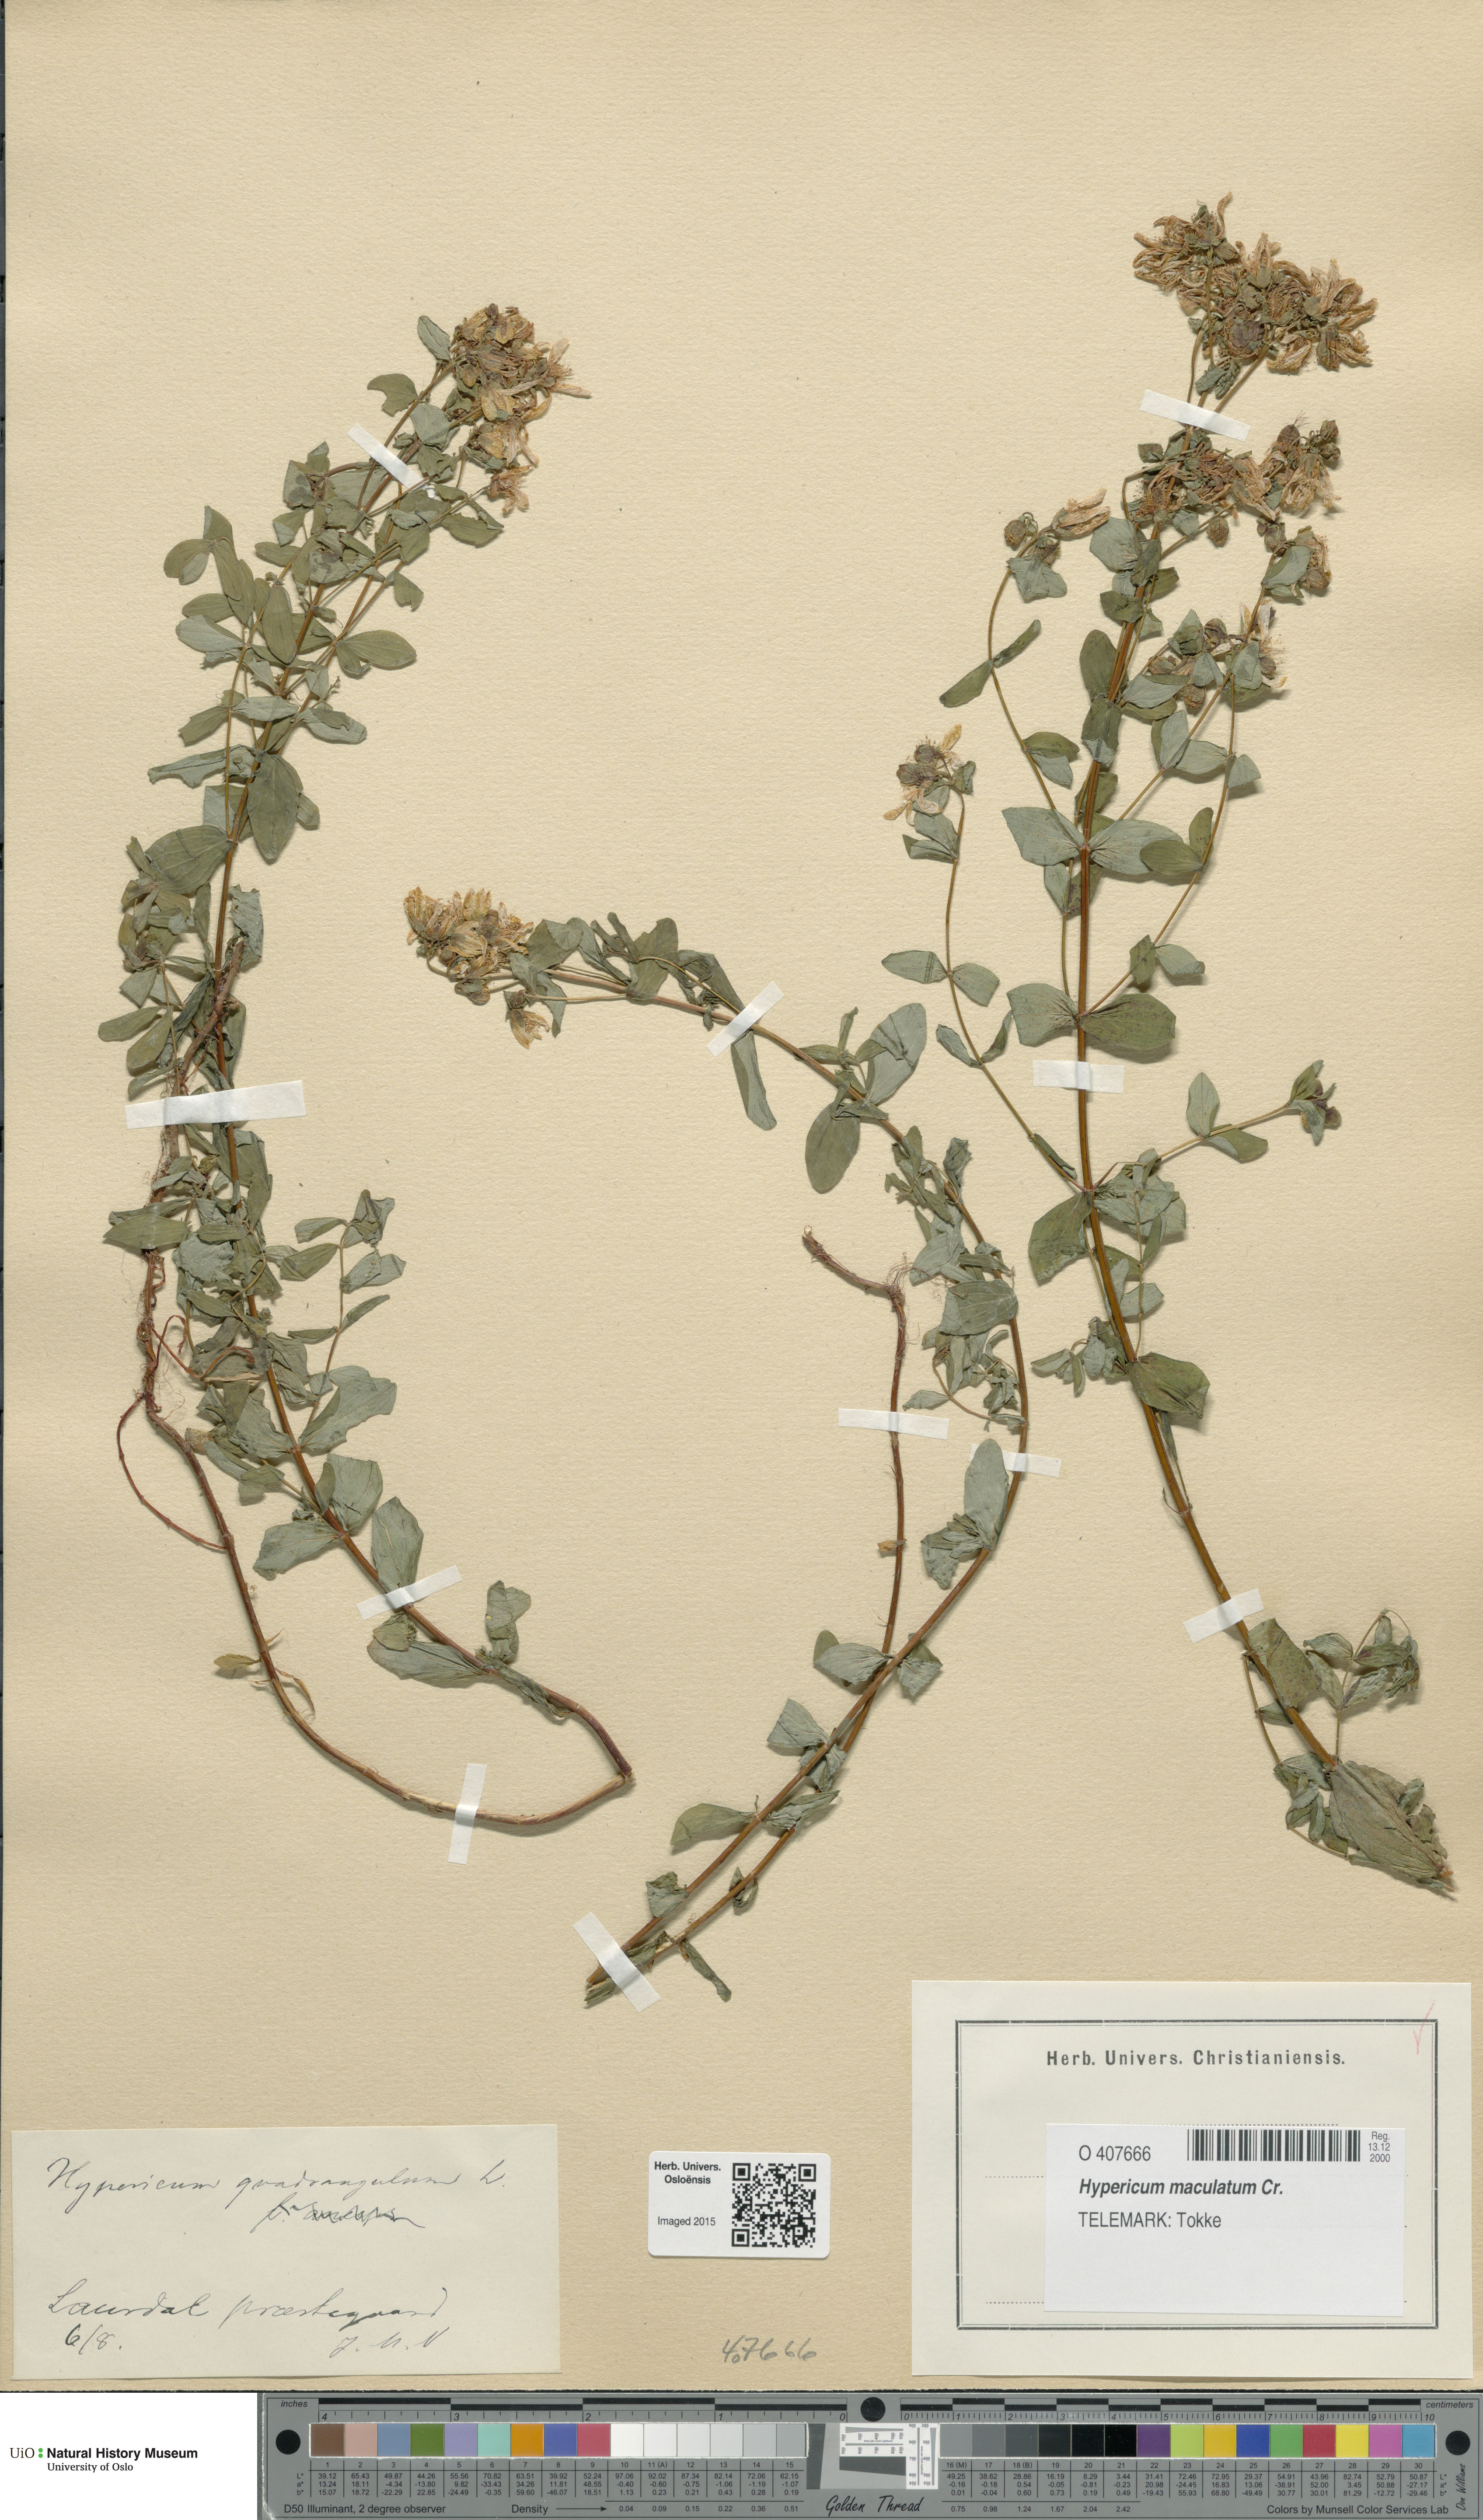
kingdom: Plantae
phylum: Tracheophyta
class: Magnoliopsida
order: Malpighiales
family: Hypericaceae
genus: Hypericum
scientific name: Hypericum maculatum
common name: Imperforate st. john's-wort
